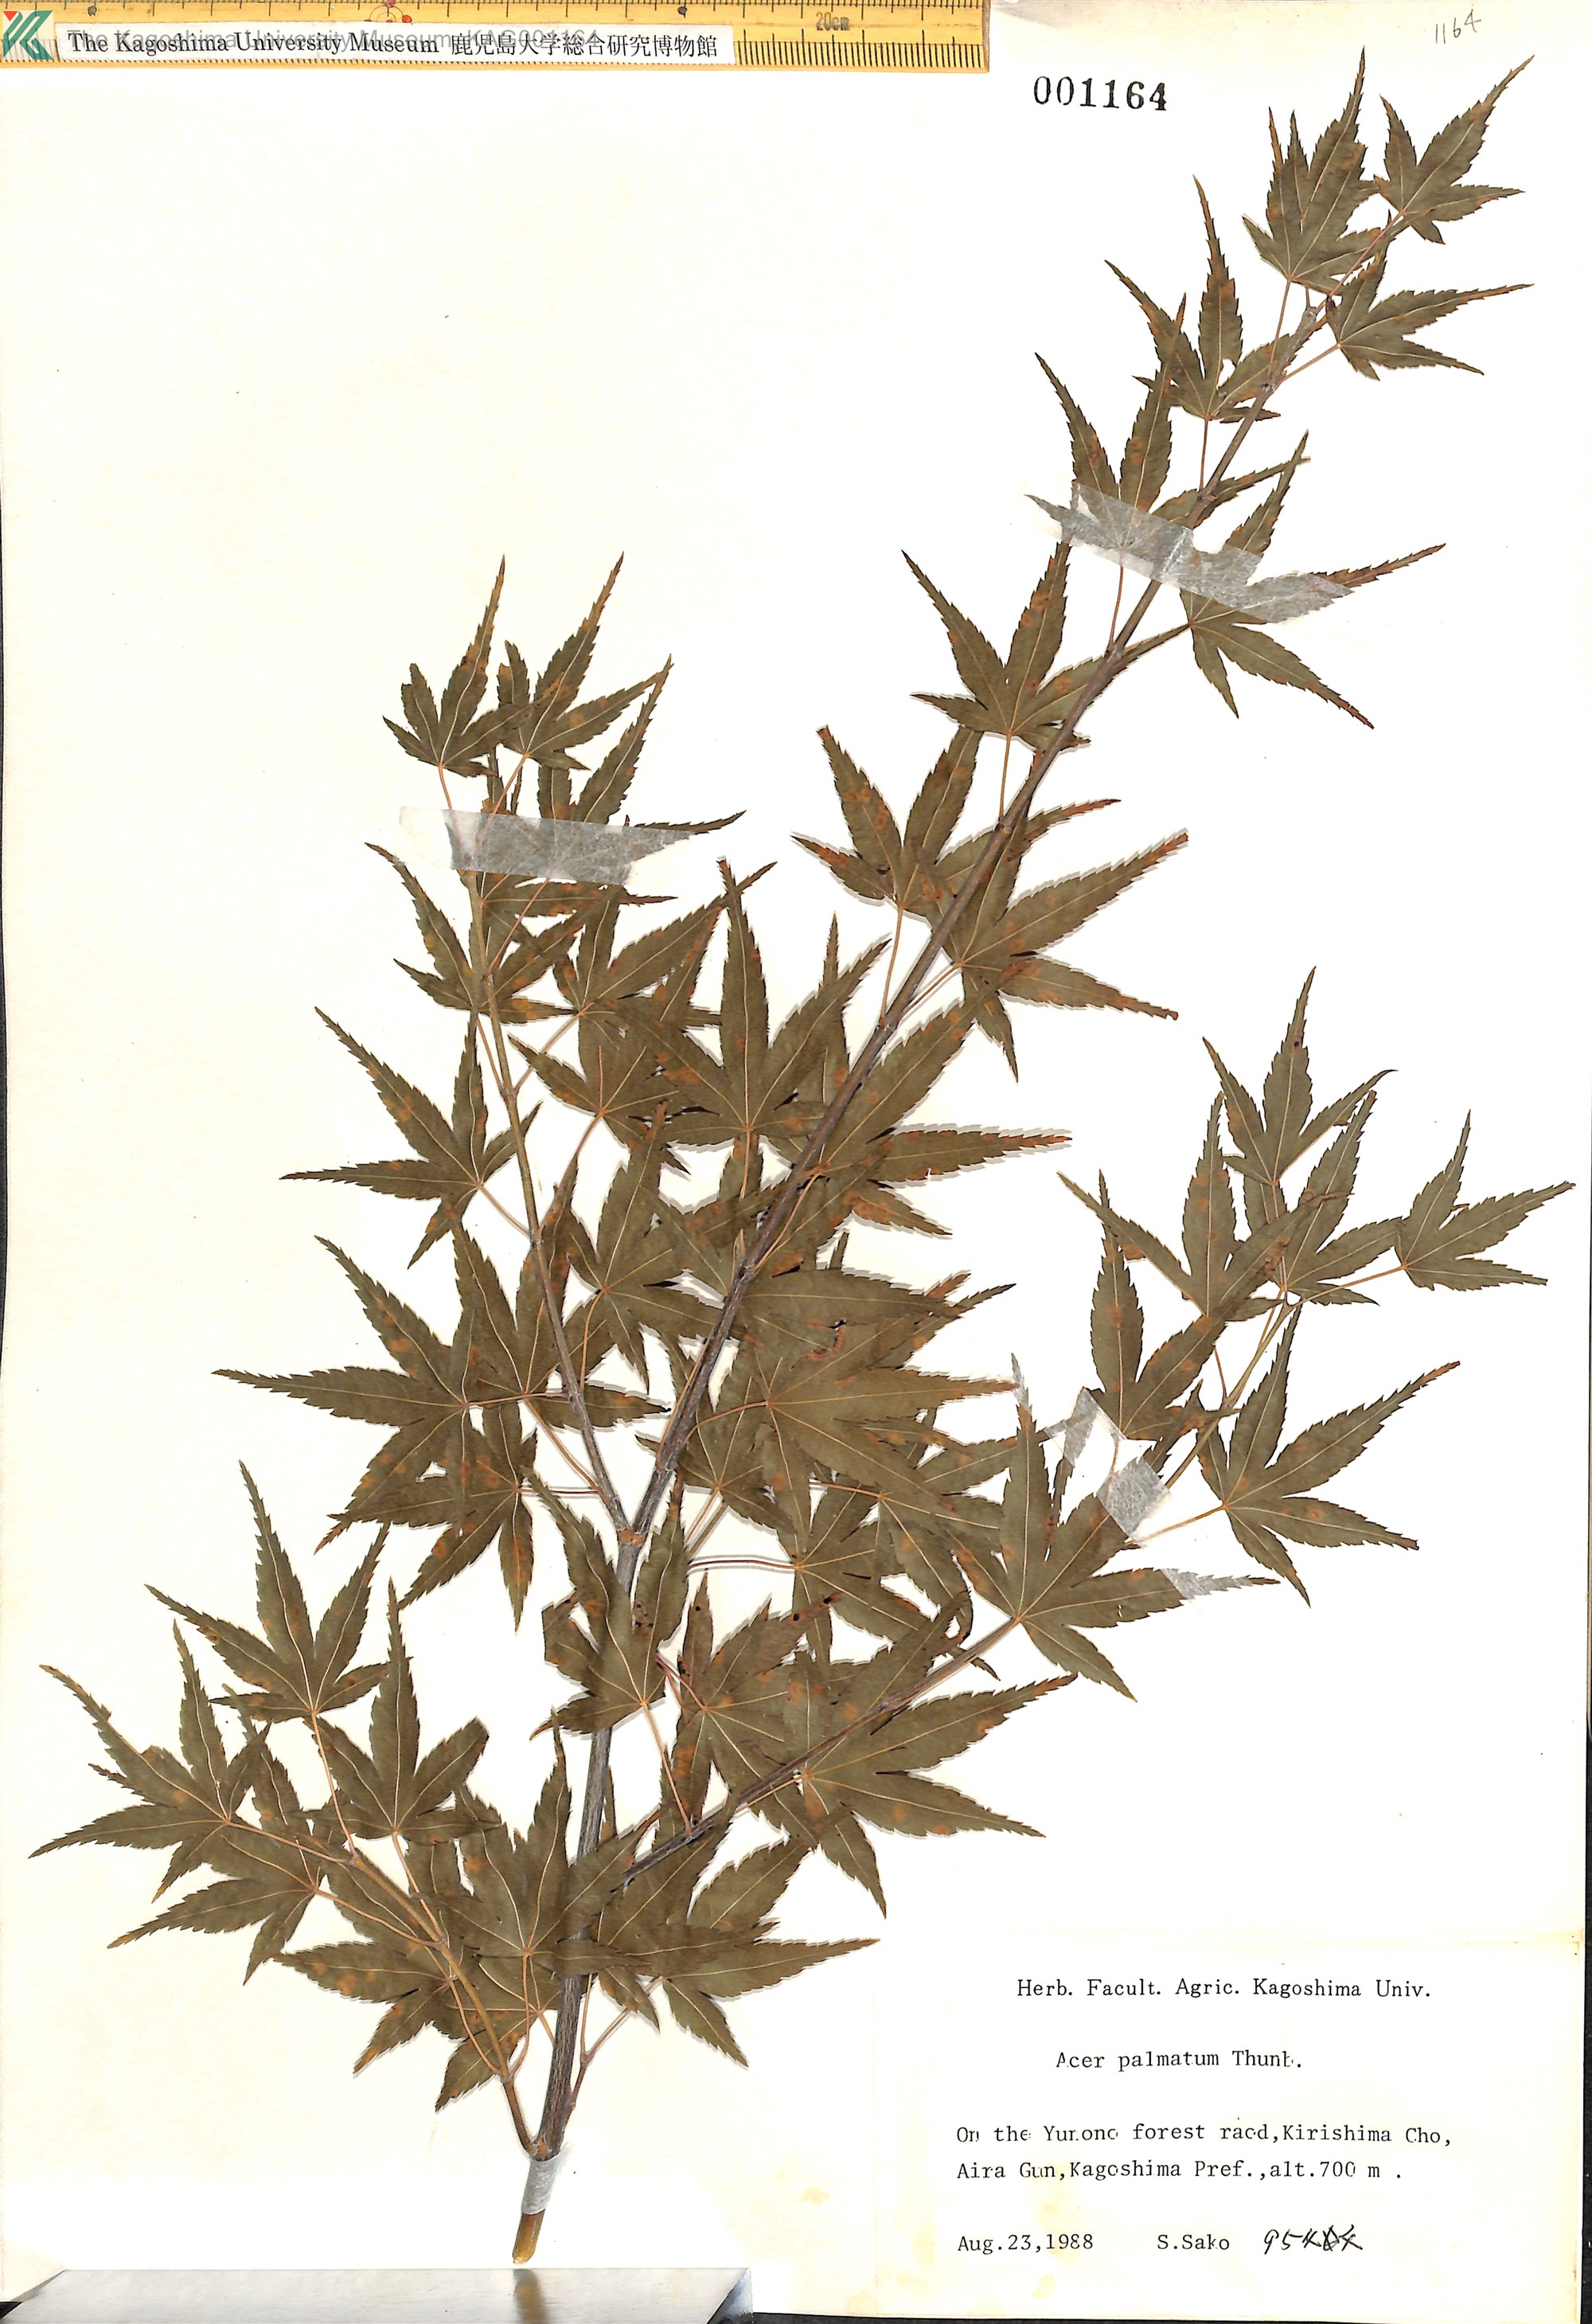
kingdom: Plantae
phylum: Tracheophyta
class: Magnoliopsida
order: Sapindales
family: Sapindaceae
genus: Acer
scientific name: Acer palmatum
